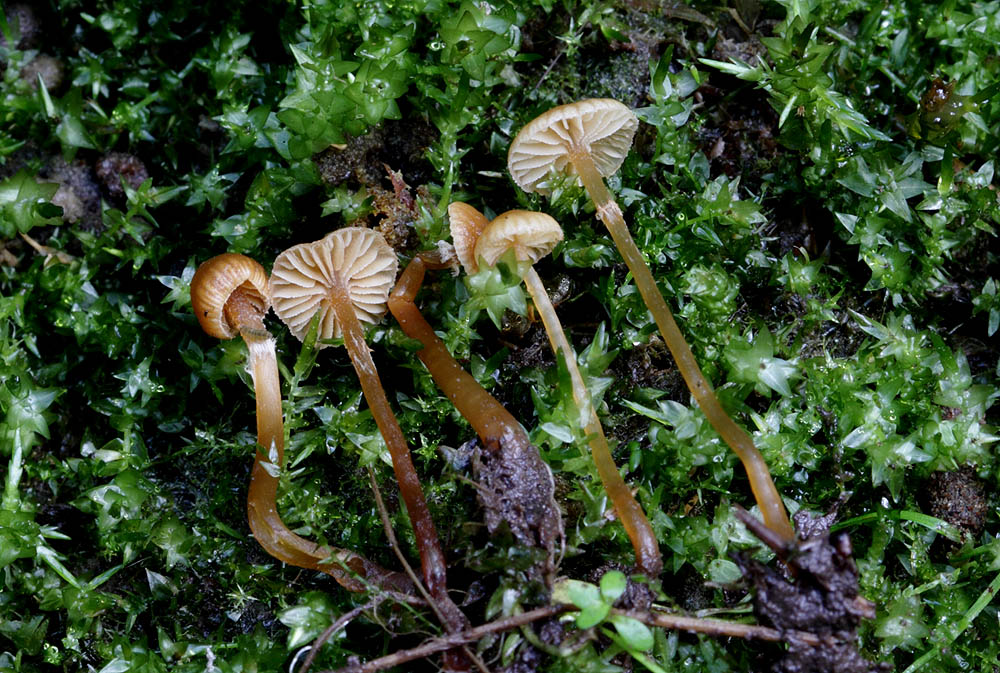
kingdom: Fungi
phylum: Basidiomycota
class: Agaricomycetes
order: Agaricales
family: Hymenogastraceae
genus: Galerina
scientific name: Galerina jaapii
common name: hvidbæltet hjelmhat
